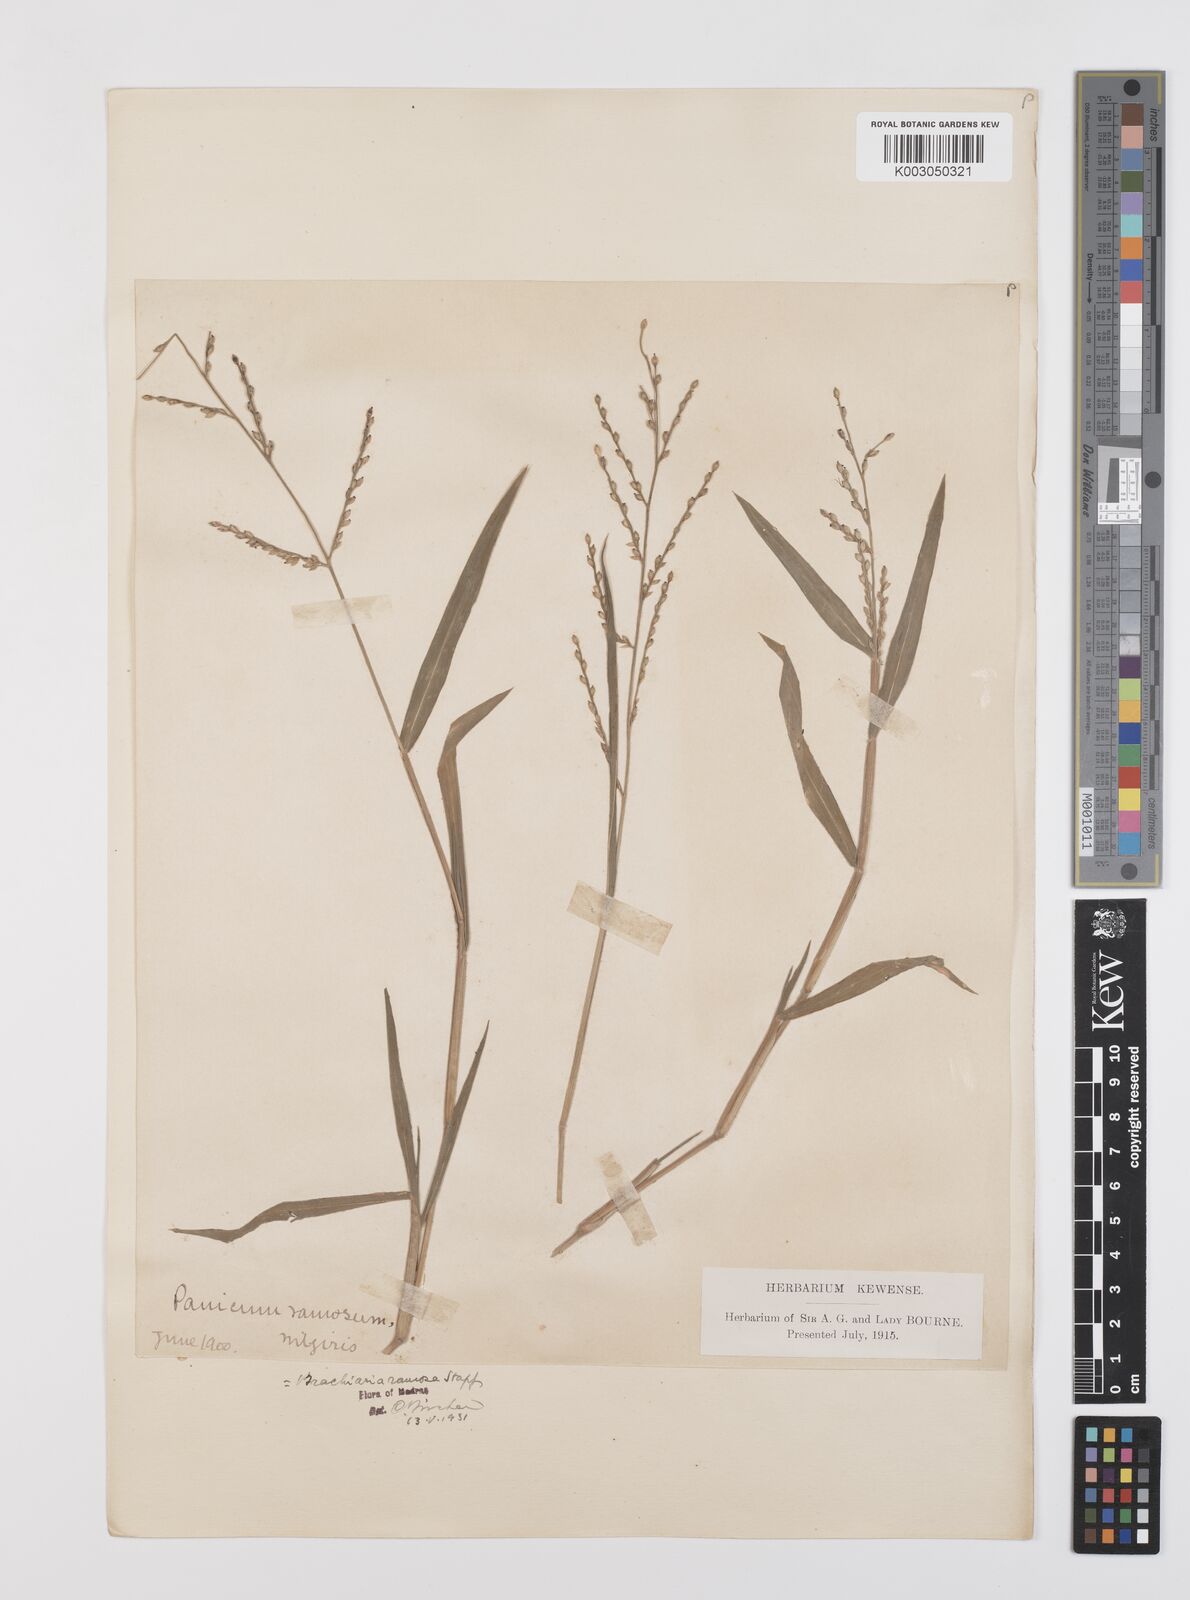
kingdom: Plantae
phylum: Tracheophyta
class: Liliopsida
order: Poales
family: Poaceae
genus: Urochloa
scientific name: Urochloa ramosa
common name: Browntop millet
